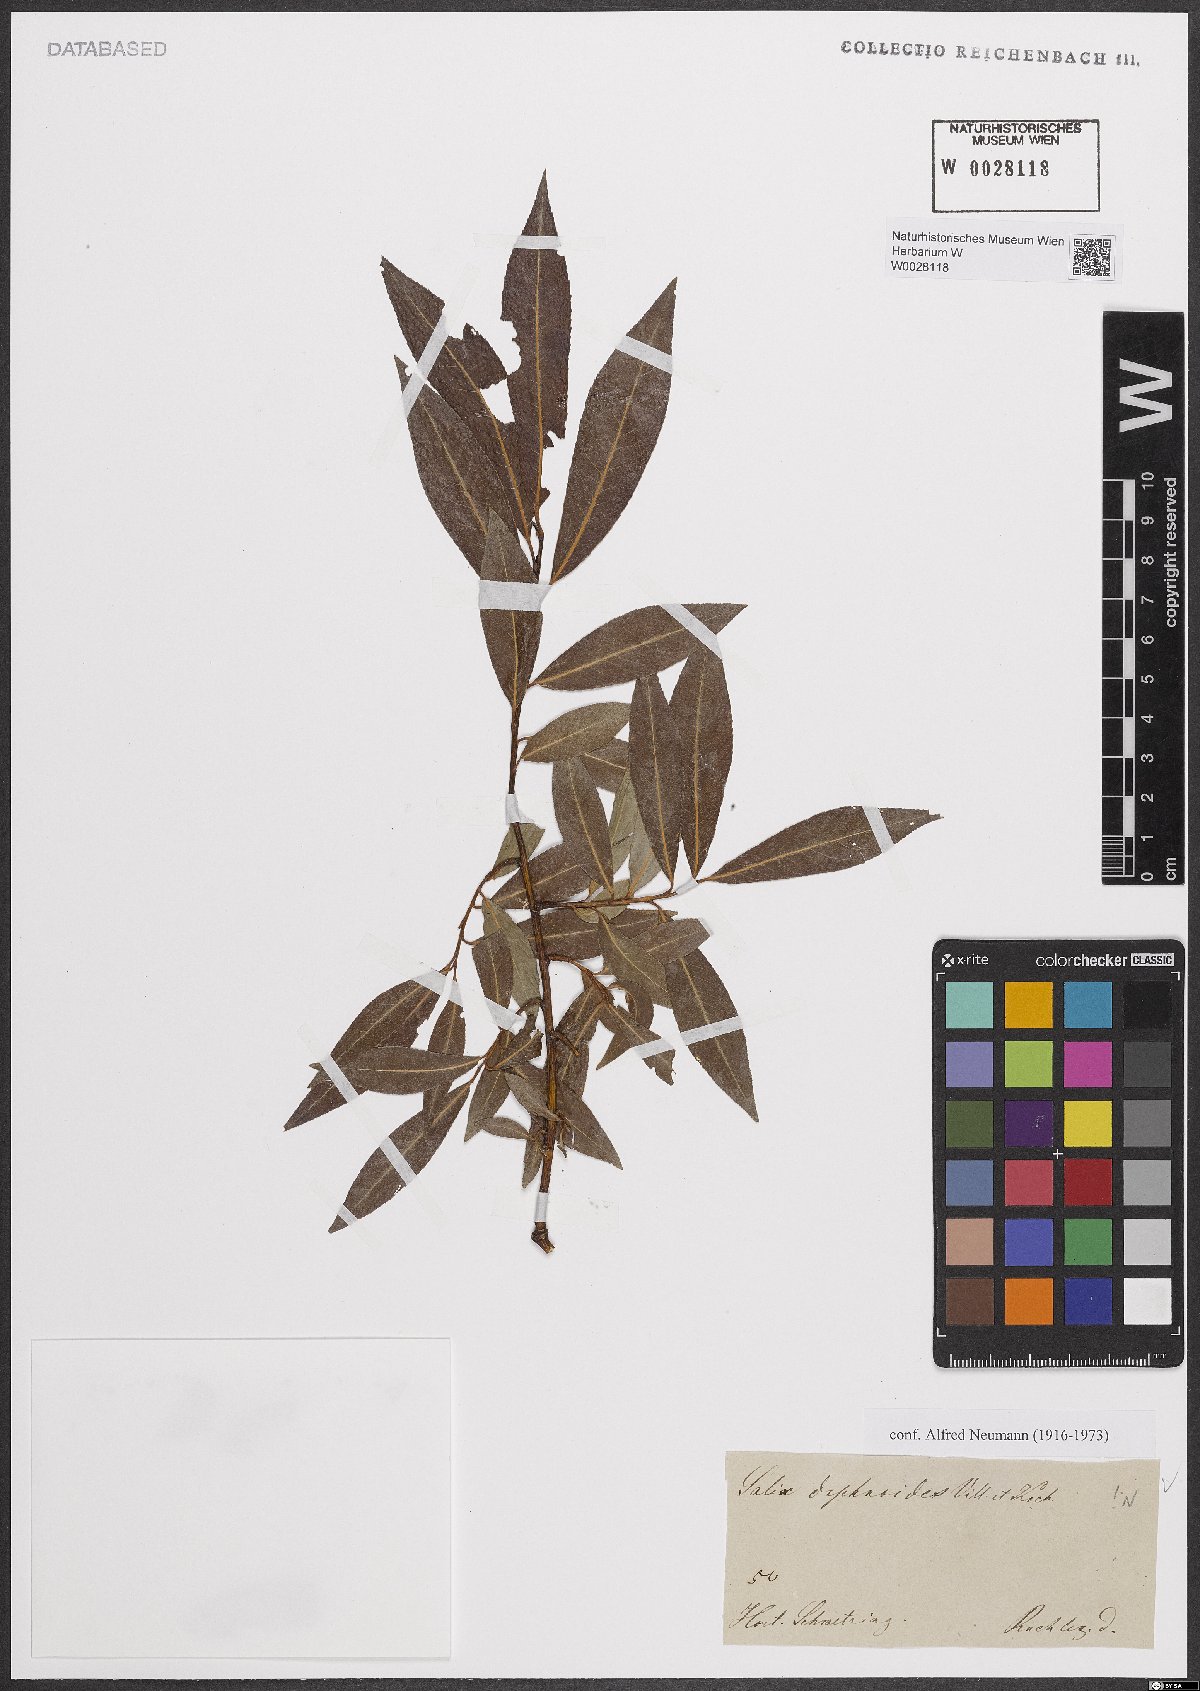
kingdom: Plantae
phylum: Tracheophyta
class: Magnoliopsida
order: Malpighiales
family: Salicaceae
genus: Salix
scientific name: Salix daphnoides
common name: European violet-willow
